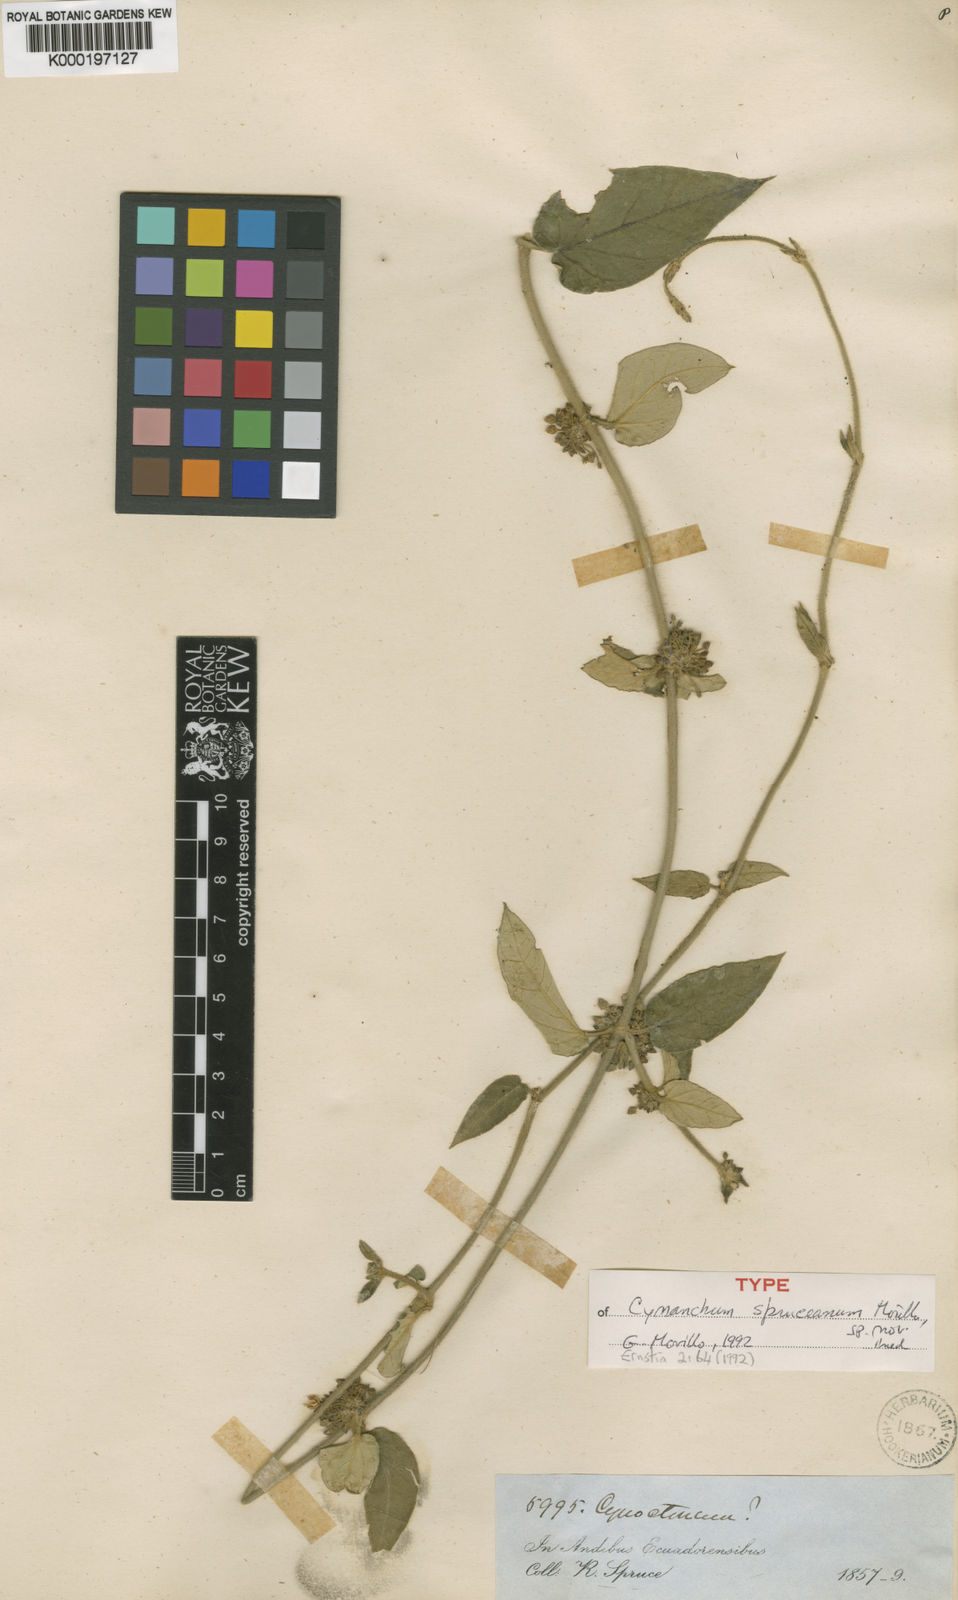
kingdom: Plantae
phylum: Tracheophyta
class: Magnoliopsida
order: Gentianales
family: Apocynaceae
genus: Metastelma
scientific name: Metastelma spruceanum
